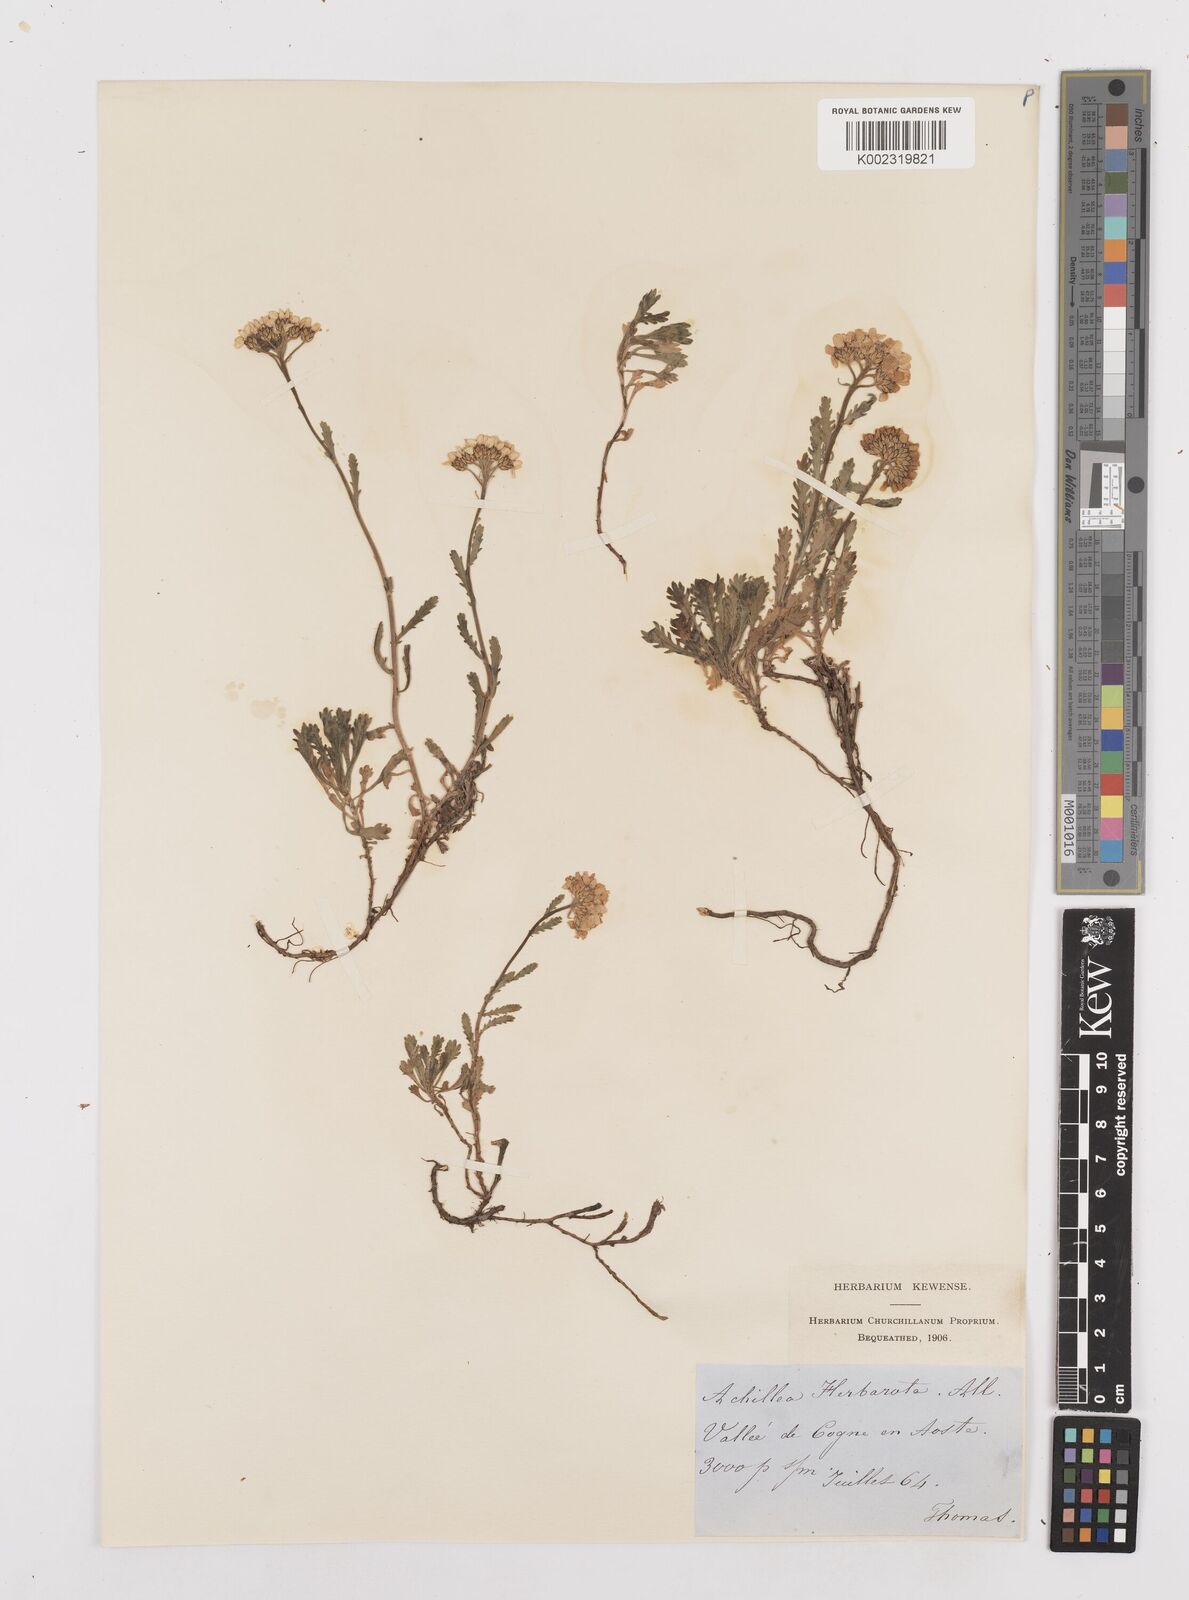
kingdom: Plantae
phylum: Tracheophyta
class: Magnoliopsida
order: Asterales
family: Asteraceae
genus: Achillea
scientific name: Achillea erba-rotta
